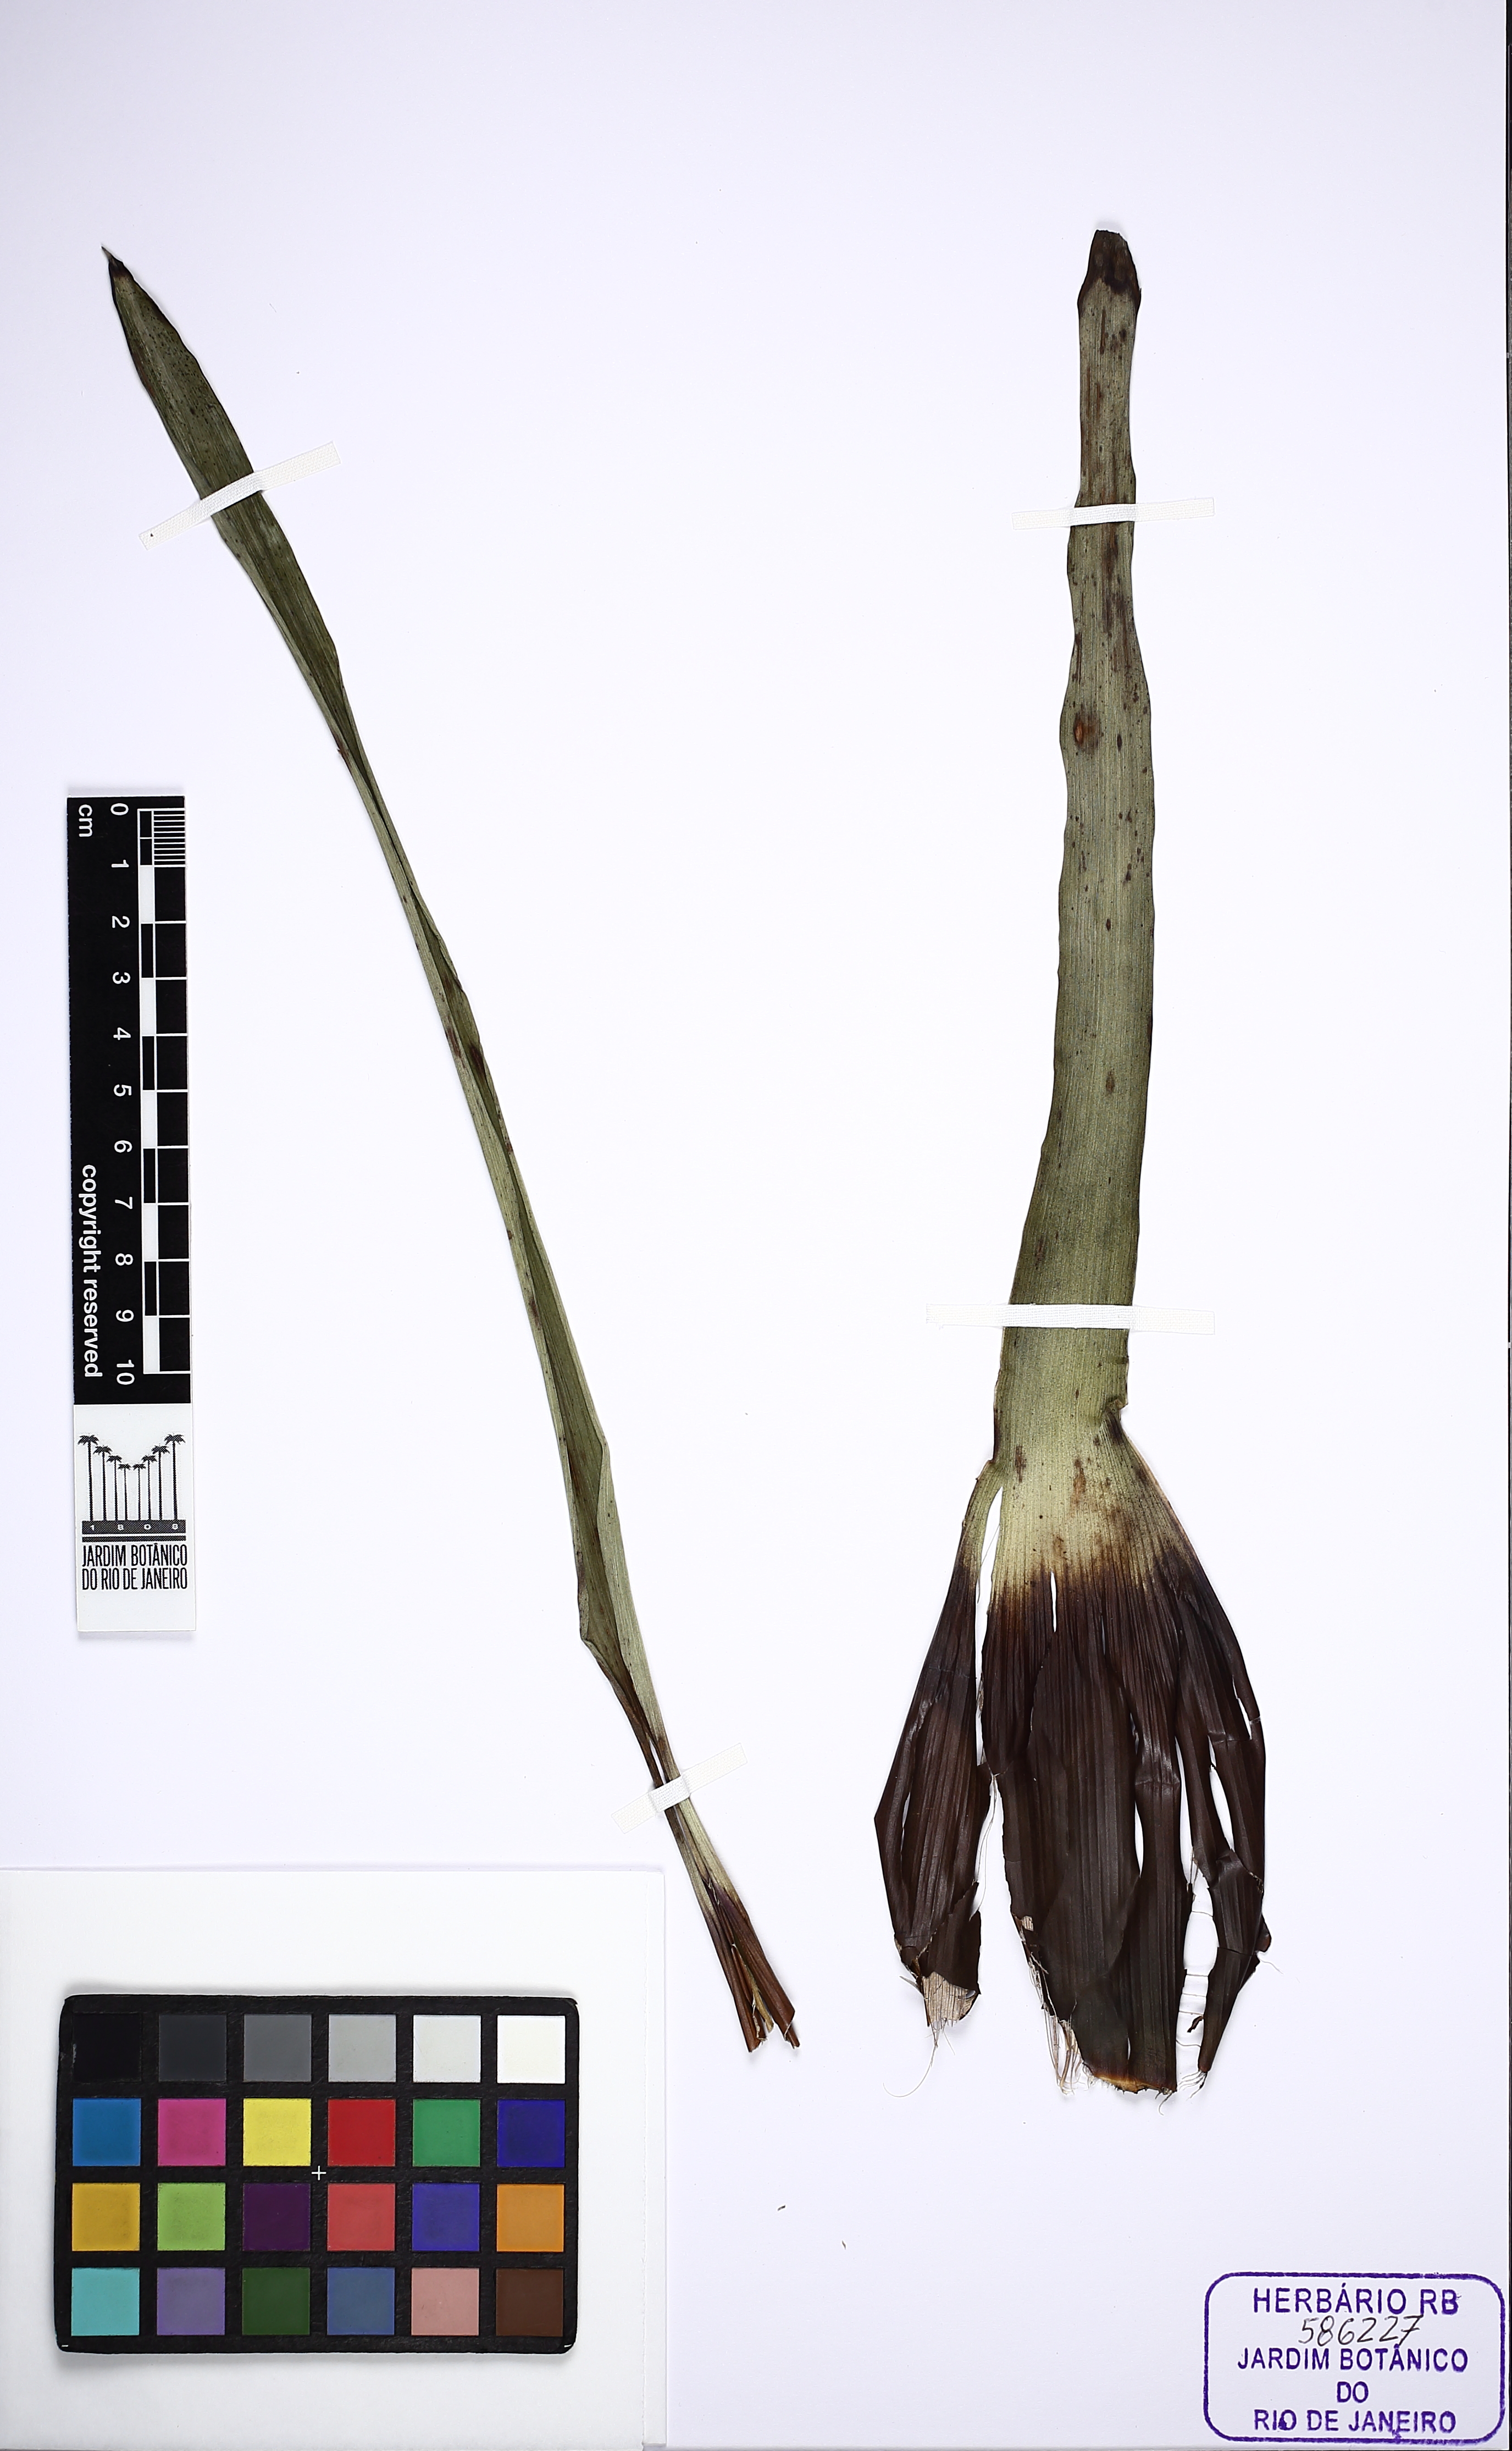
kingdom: Plantae
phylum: Tracheophyta
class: Liliopsida
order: Poales
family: Bromeliaceae
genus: Vriesea
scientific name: Vriesea platzmannii
